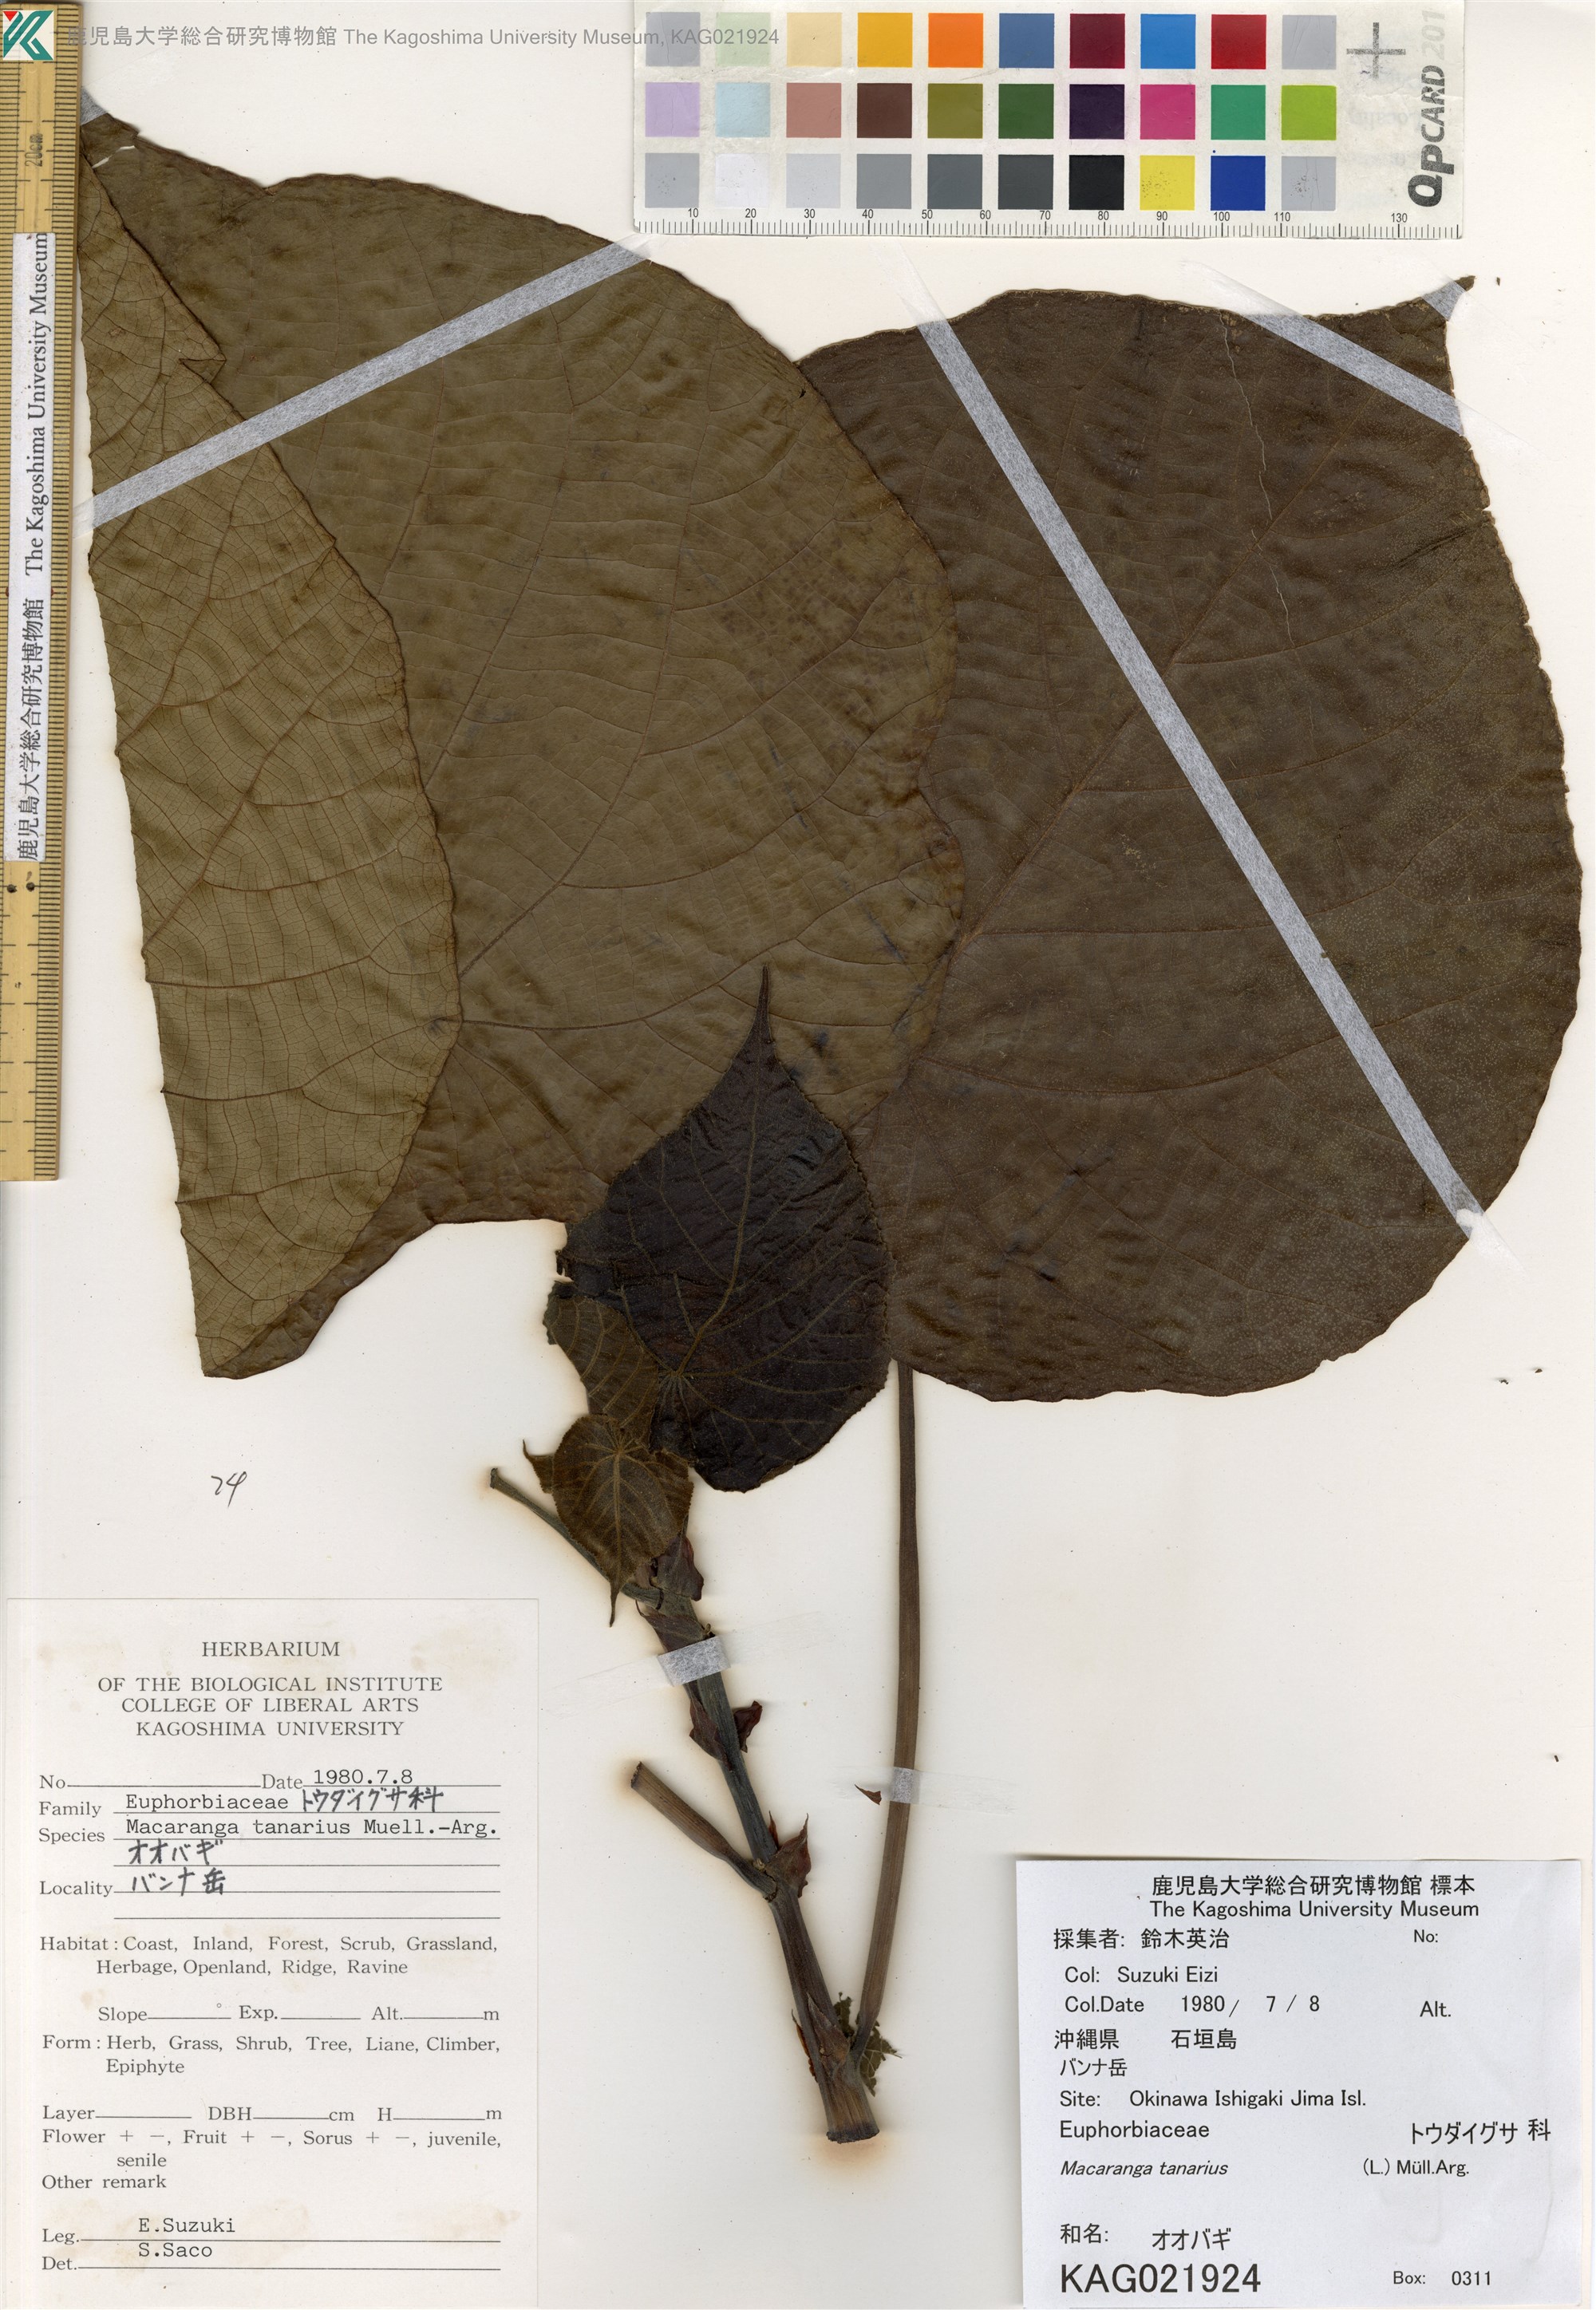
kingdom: Plantae
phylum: Tracheophyta
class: Magnoliopsida
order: Malpighiales
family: Euphorbiaceae
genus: Macaranga
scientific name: Macaranga tanarius
